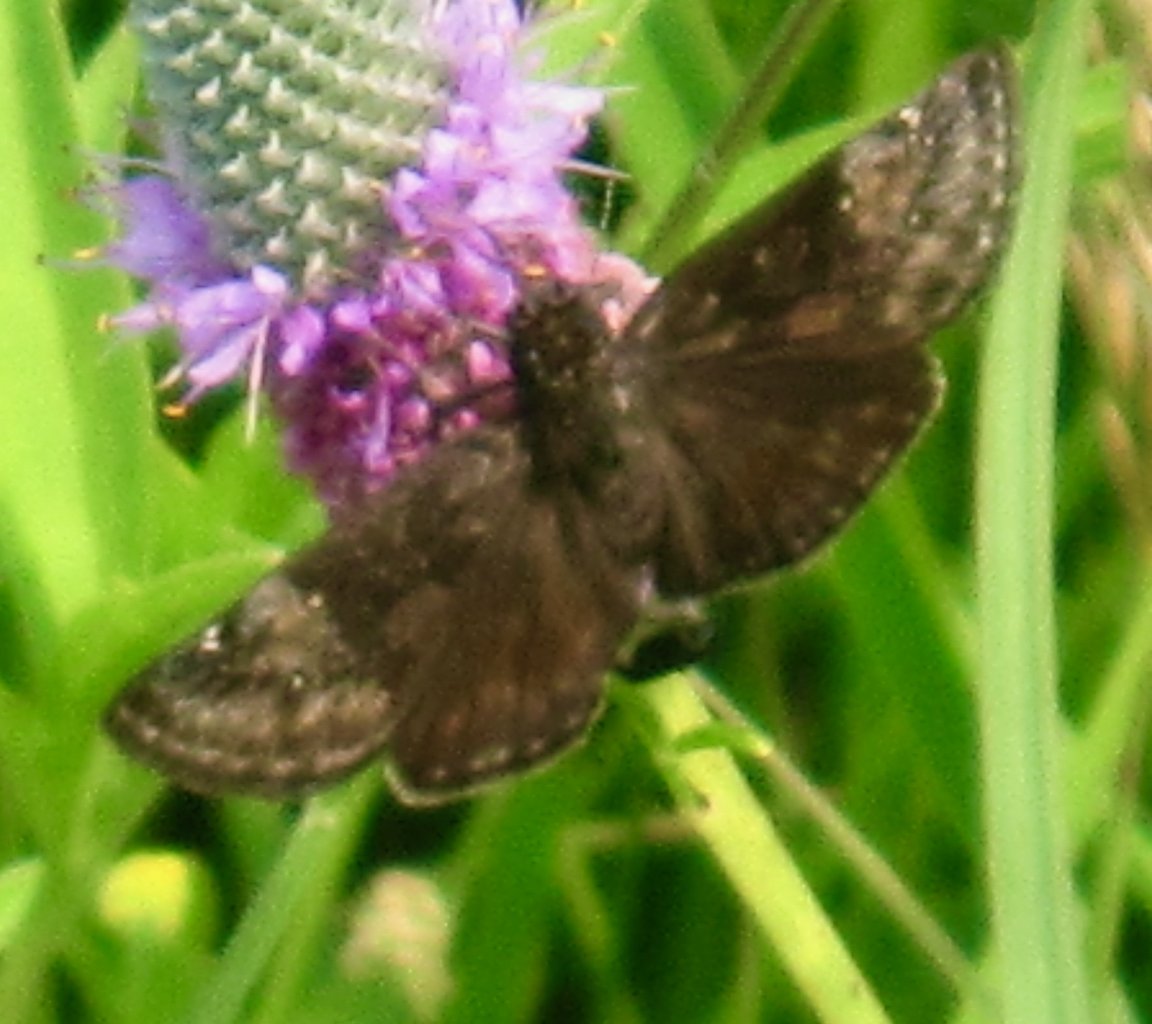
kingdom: Animalia
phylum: Arthropoda
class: Insecta
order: Lepidoptera
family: Hesperiidae
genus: Gesta
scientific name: Gesta
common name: Wild Indigo Duskywing
